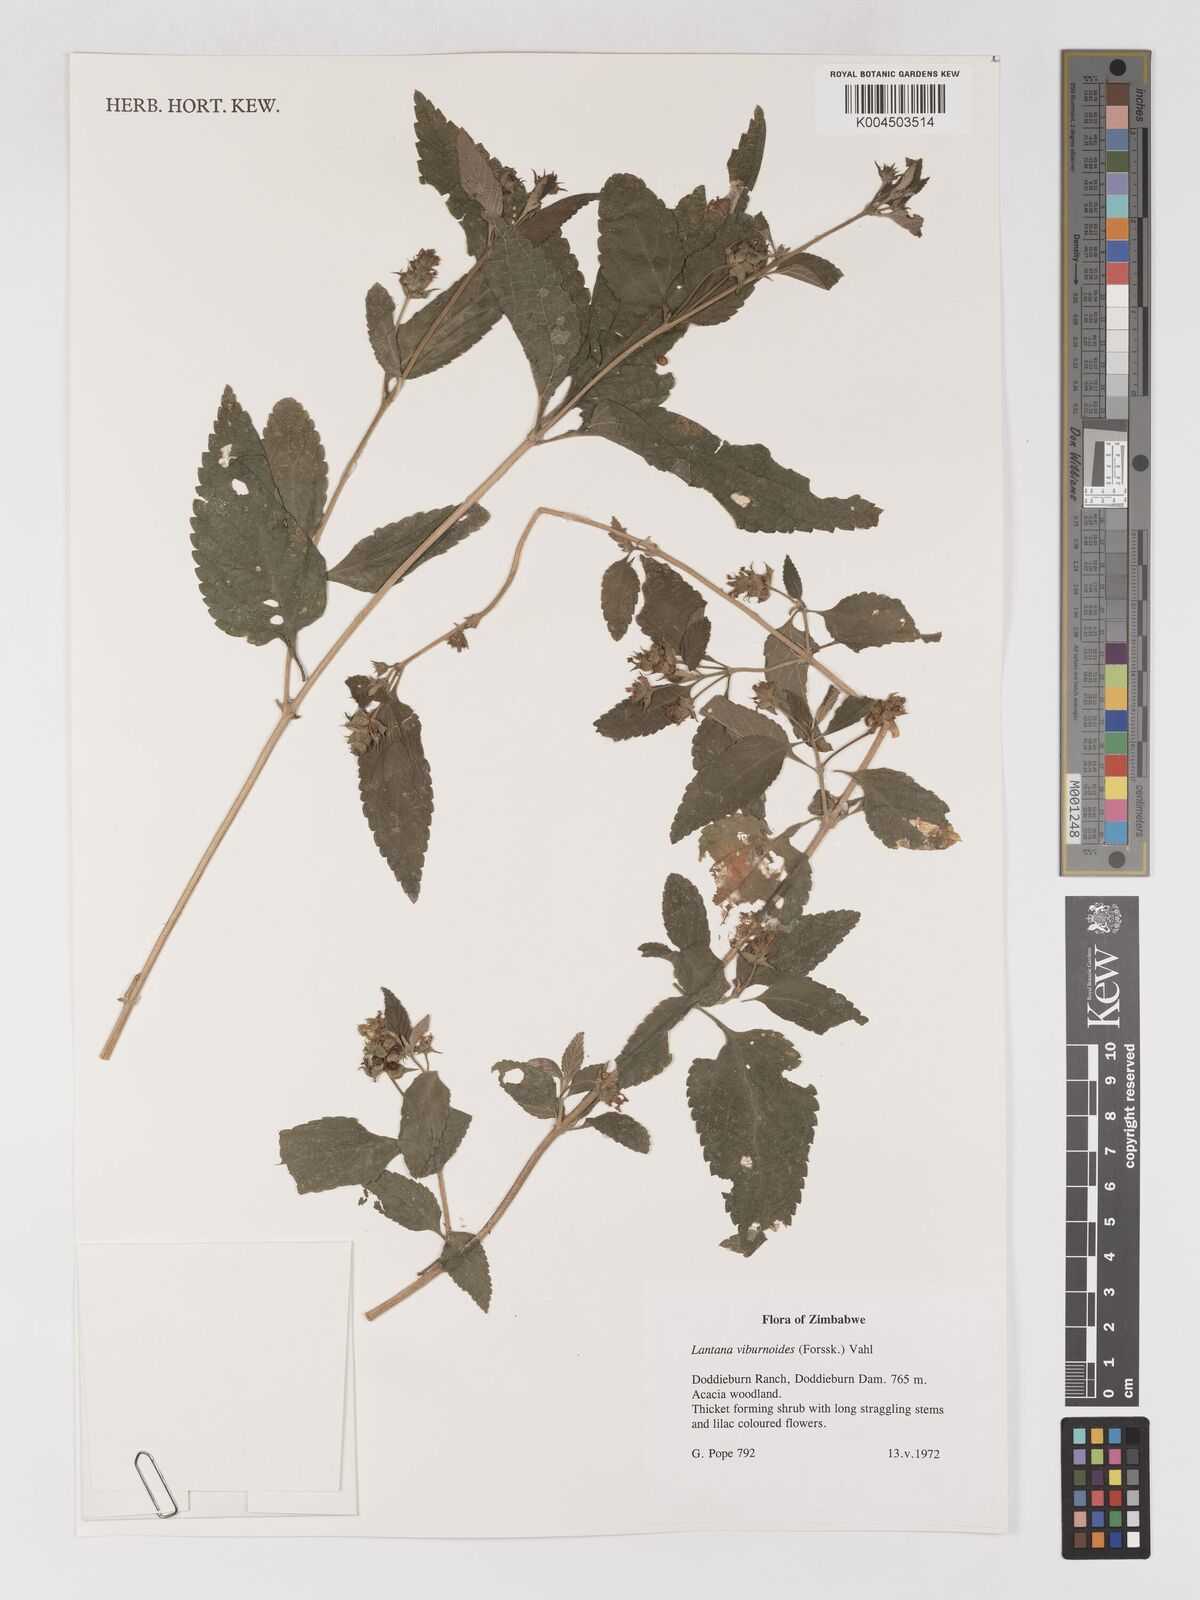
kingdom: Plantae
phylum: Tracheophyta
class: Magnoliopsida
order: Lamiales
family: Verbenaceae
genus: Lantana
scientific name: Lantana
